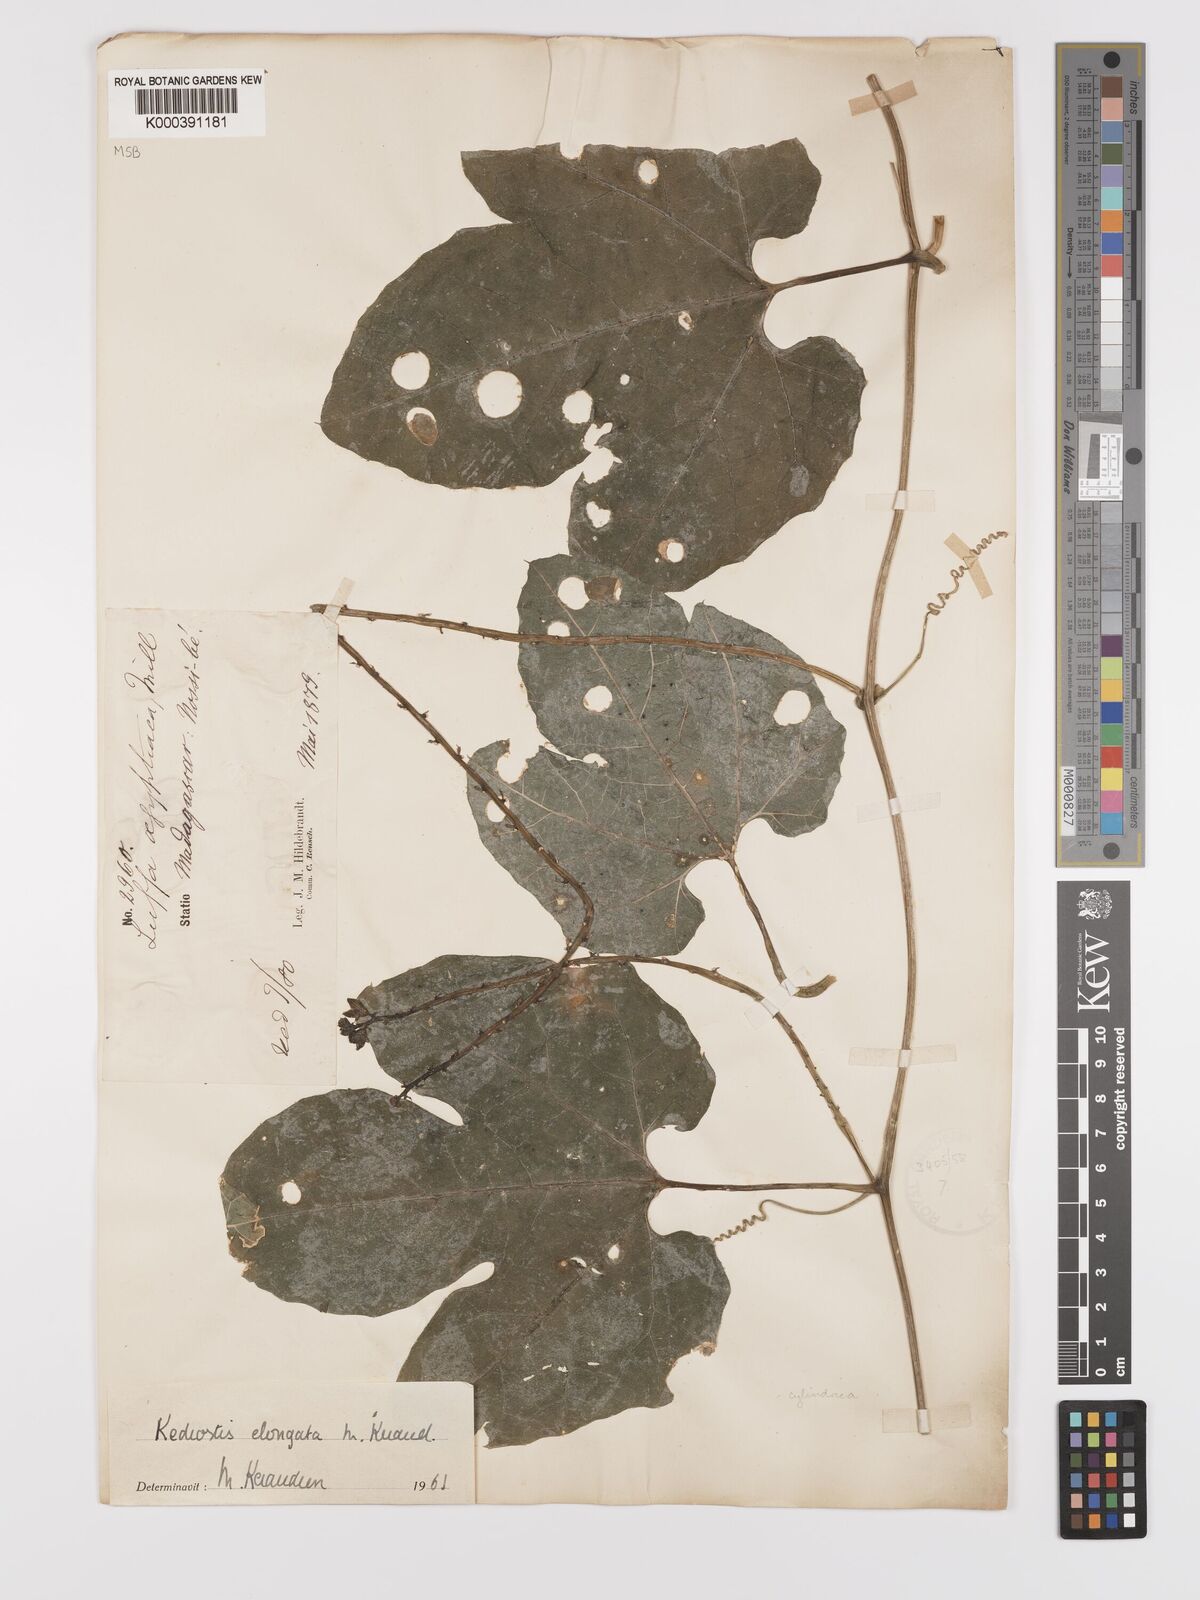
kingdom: Plantae
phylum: Tracheophyta
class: Magnoliopsida
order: Cucurbitales
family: Cucurbitaceae
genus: Kedrostis
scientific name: Kedrostis elongata
